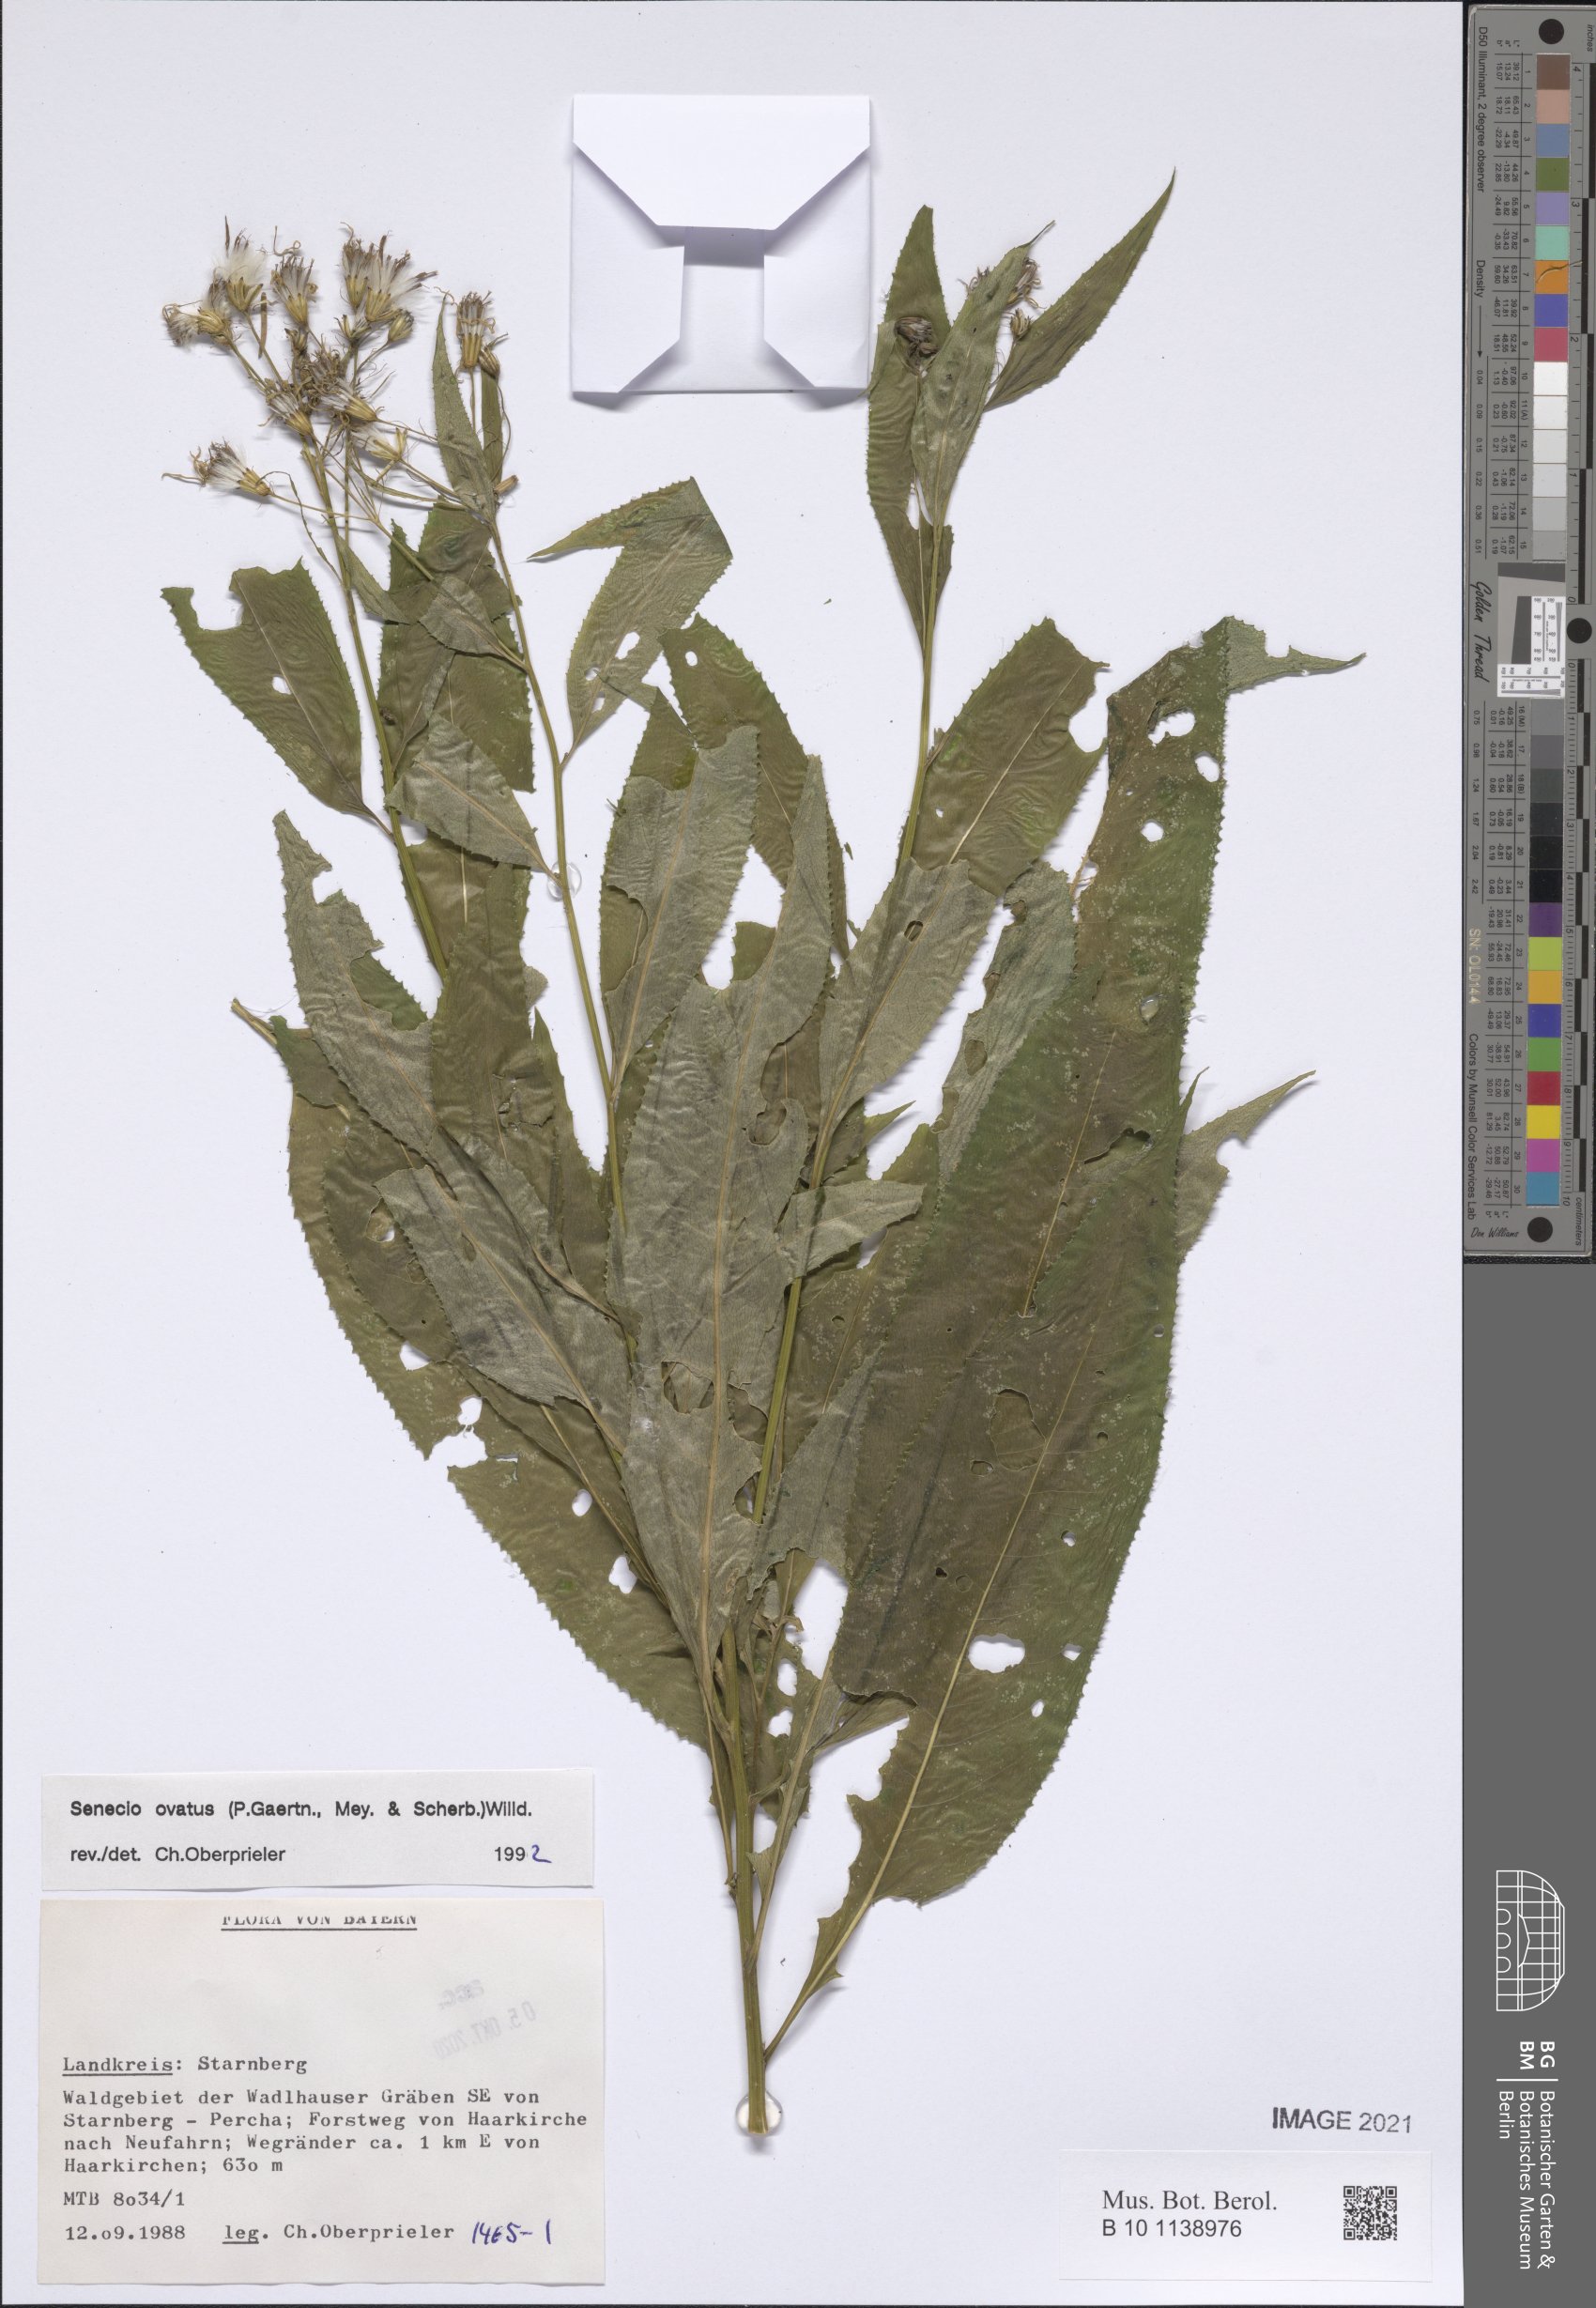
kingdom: Plantae
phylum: Tracheophyta
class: Magnoliopsida
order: Asterales
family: Asteraceae
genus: Senecio
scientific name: Senecio ovatus
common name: Wood ragwort
